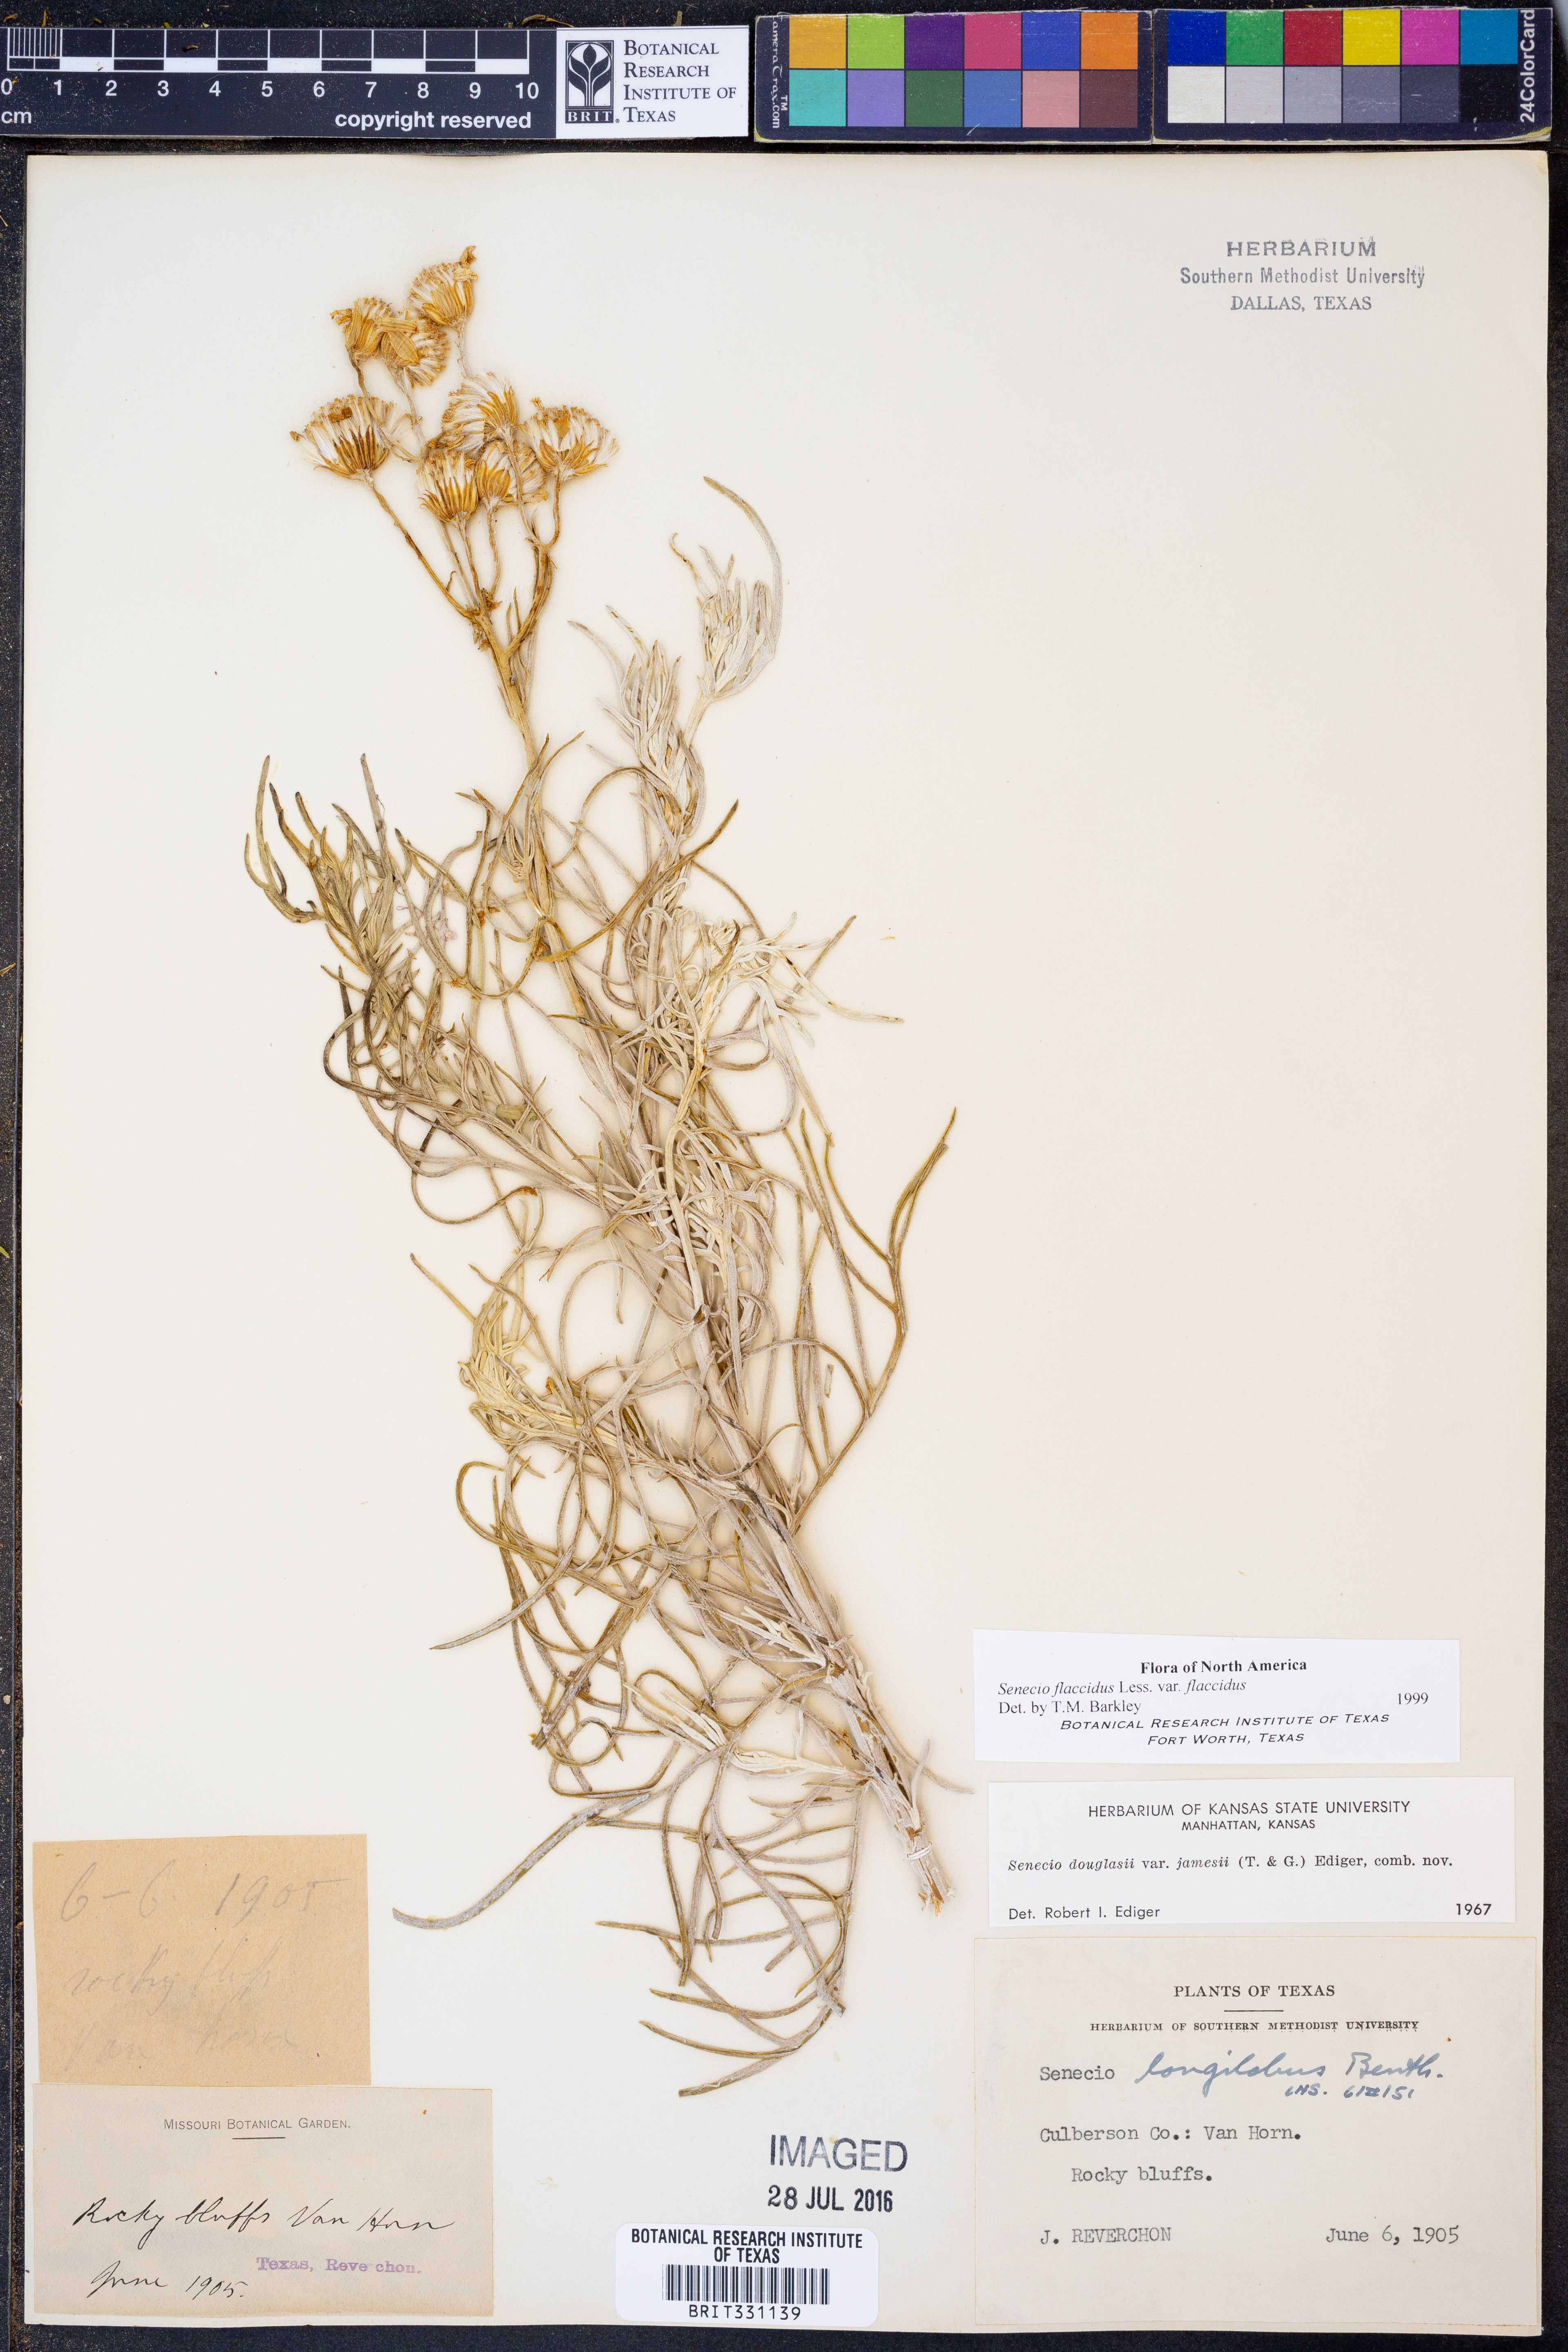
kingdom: Plantae
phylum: Tracheophyta
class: Magnoliopsida
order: Asterales
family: Asteraceae
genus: Senecio
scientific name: Senecio flaccidus
